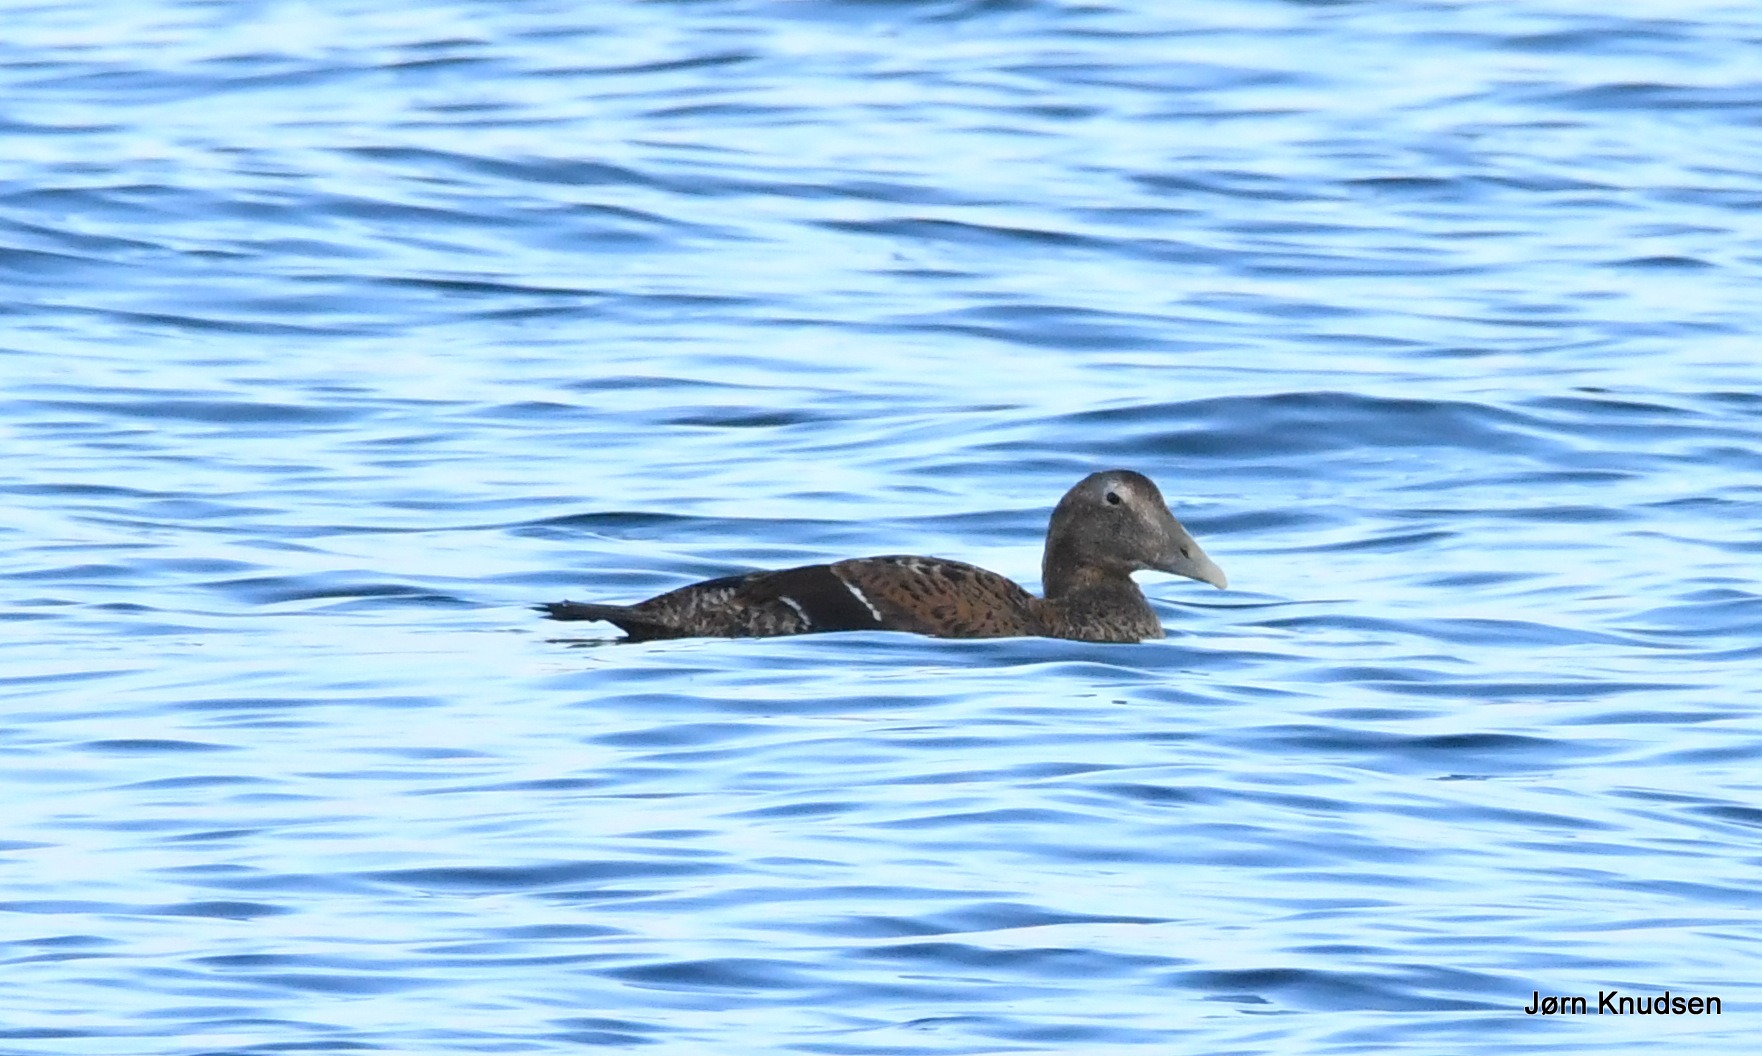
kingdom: Animalia
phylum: Chordata
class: Aves
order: Anseriformes
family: Anatidae
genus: Somateria
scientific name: Somateria mollissima
